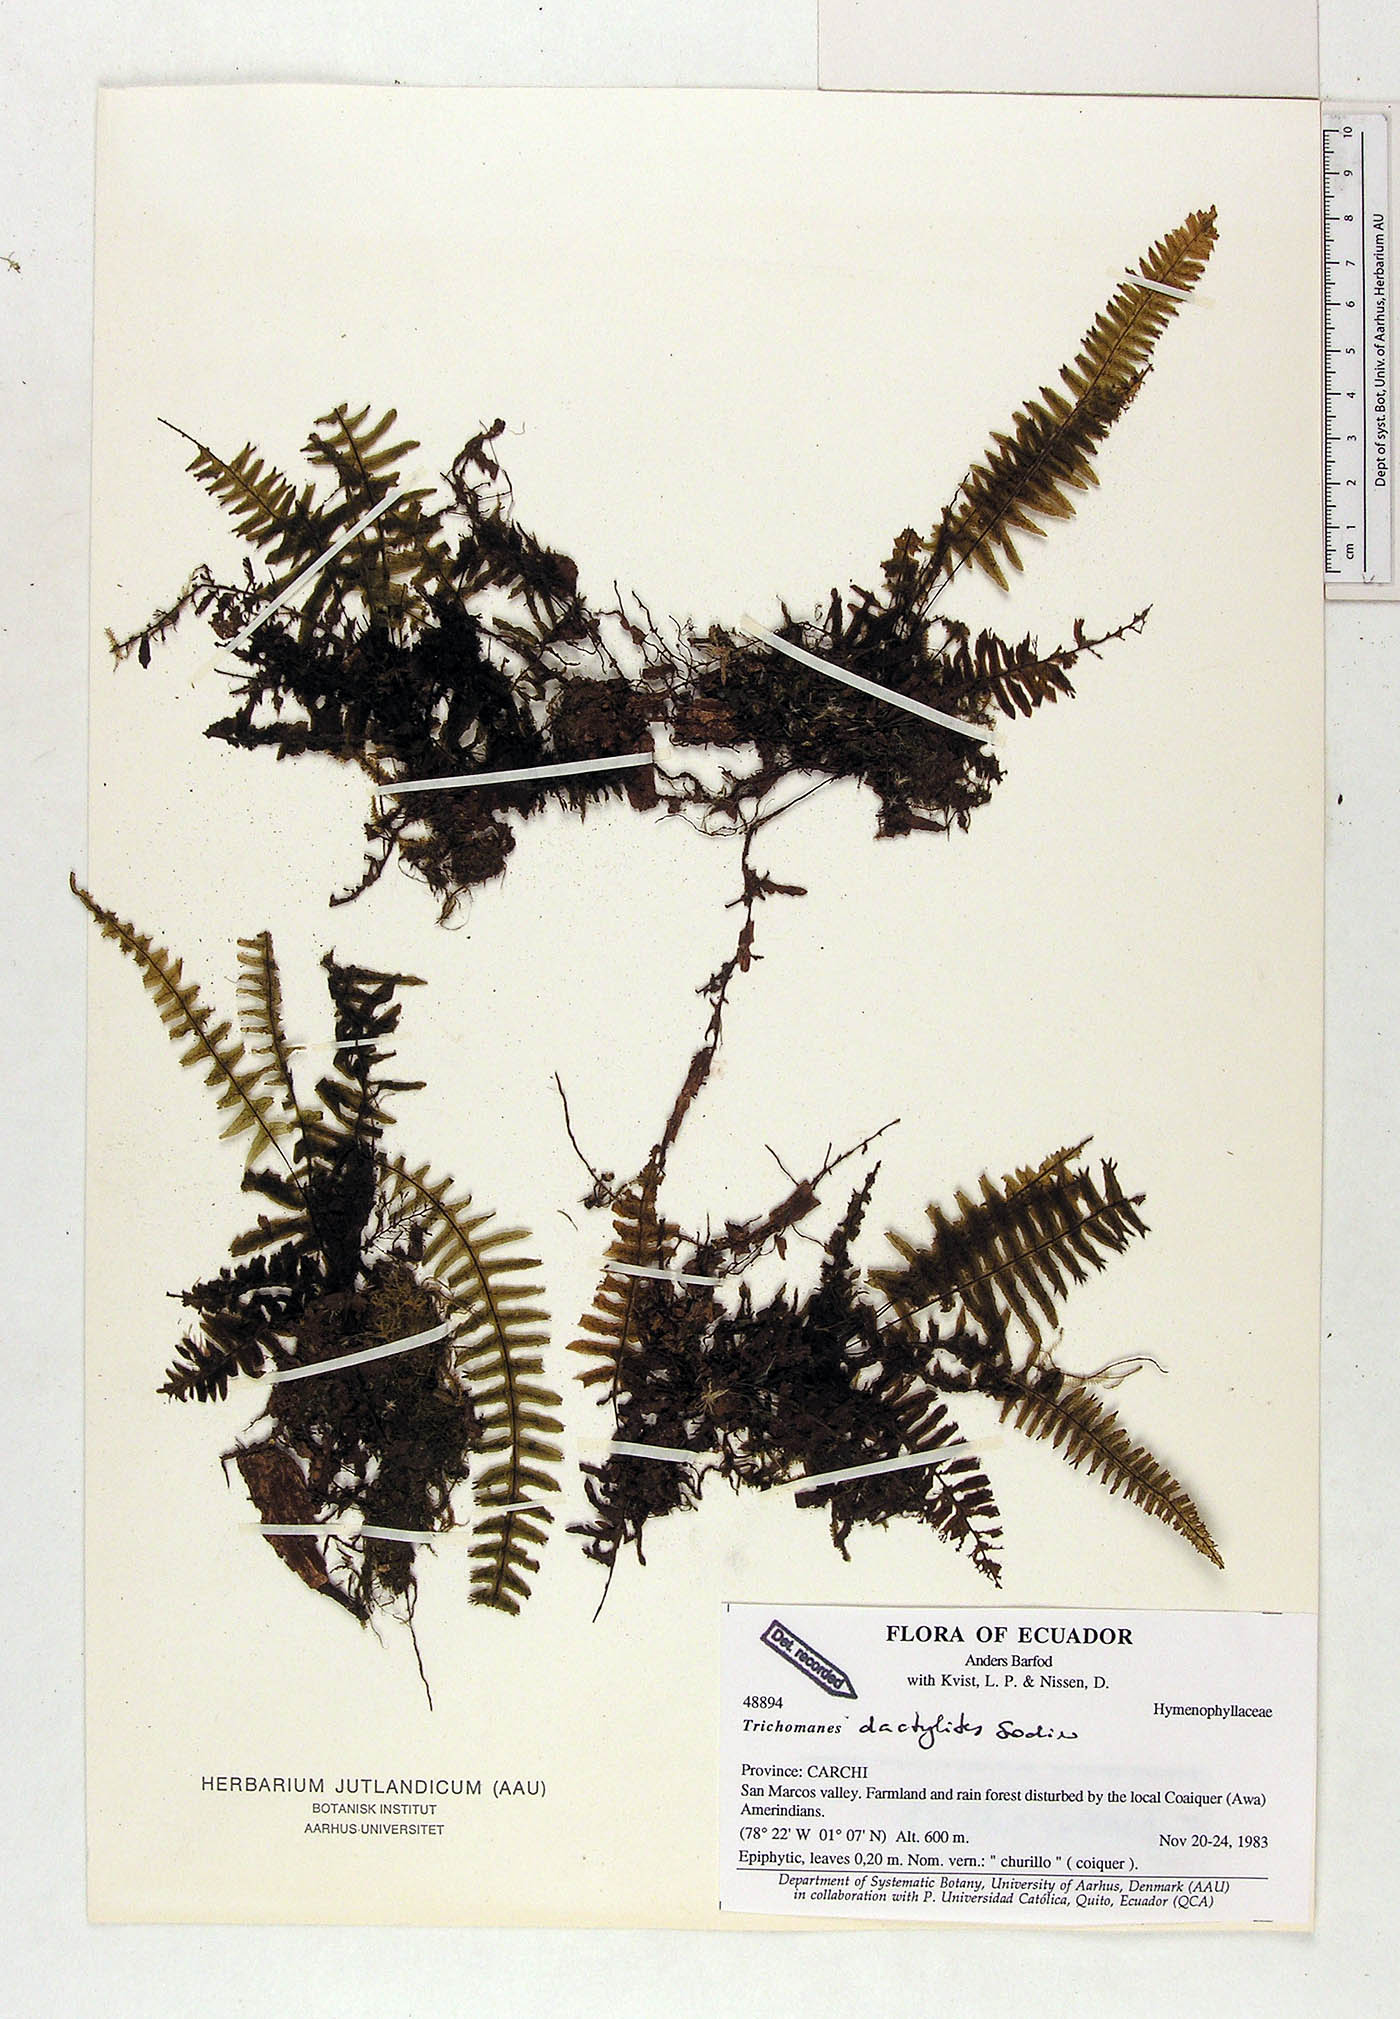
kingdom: Plantae
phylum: Tracheophyta
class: Polypodiopsida
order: Hymenophyllales
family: Hymenophyllaceae
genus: Trichomanes
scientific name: Trichomanes dactylites
